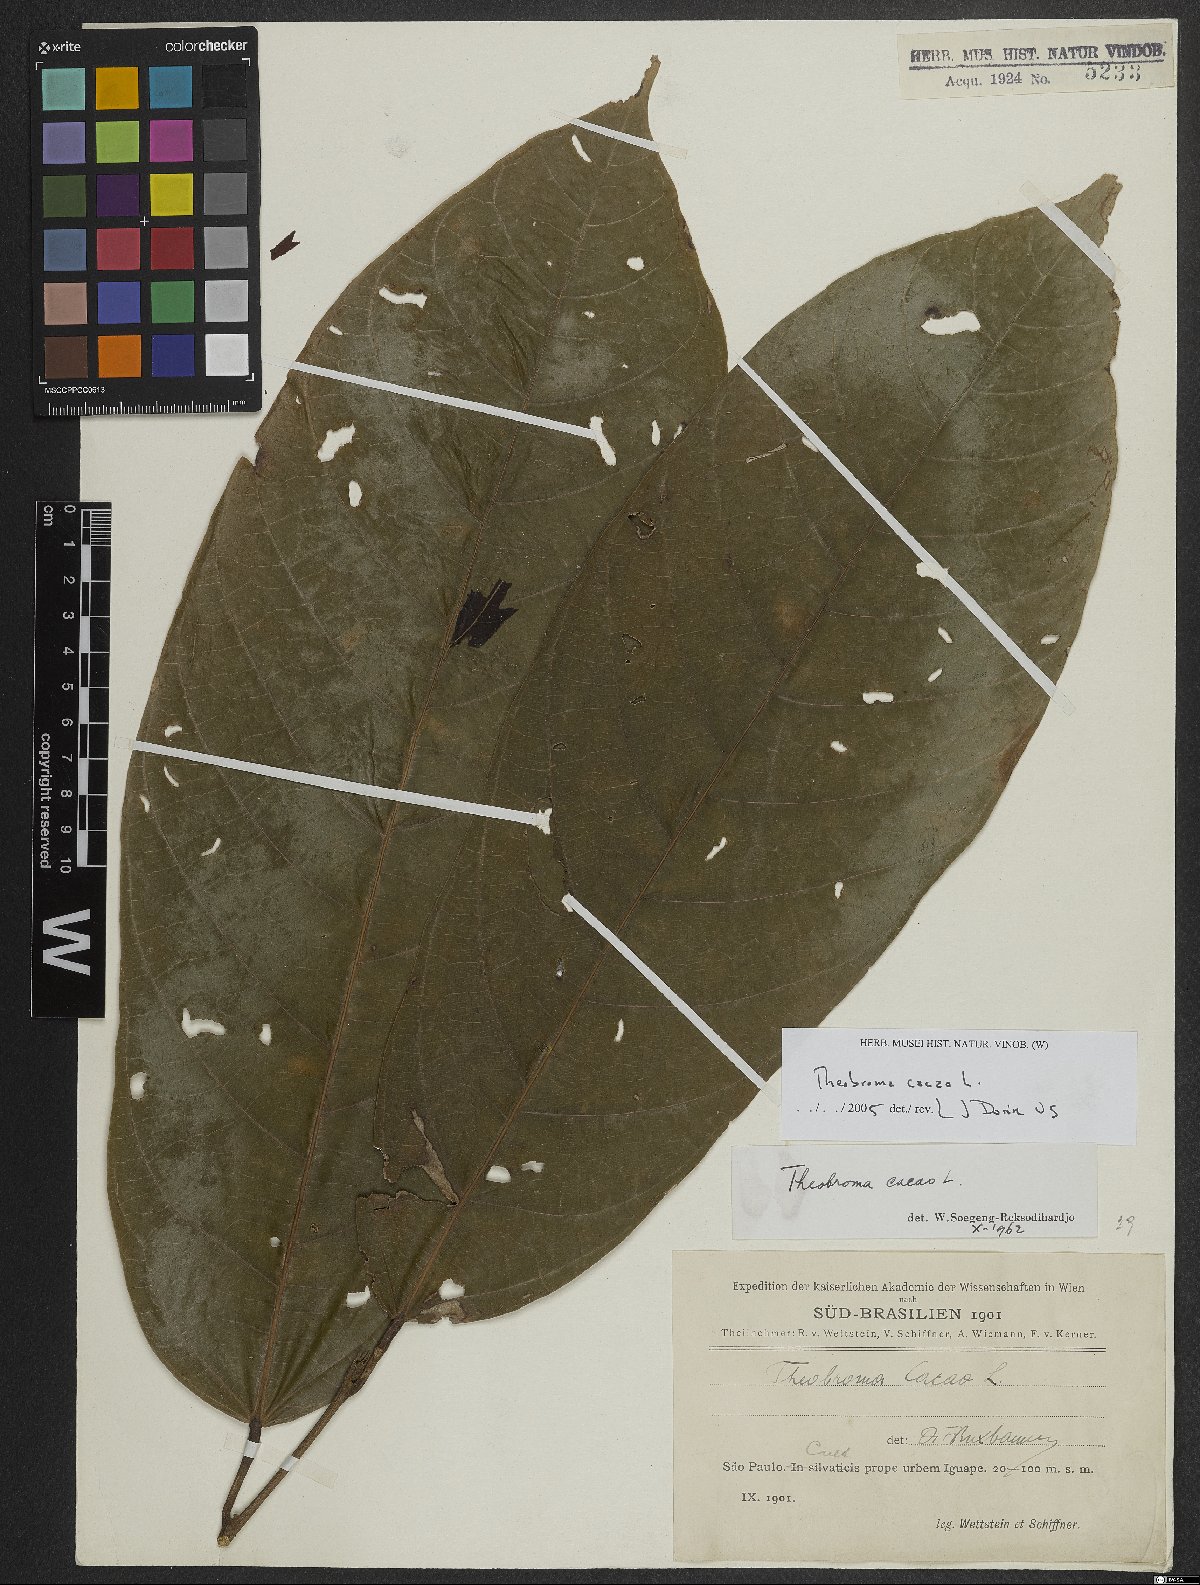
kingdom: Plantae
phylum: Tracheophyta
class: Magnoliopsida
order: Malvales
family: Malvaceae
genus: Theobroma
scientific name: Theobroma cacao
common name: Cocoa
